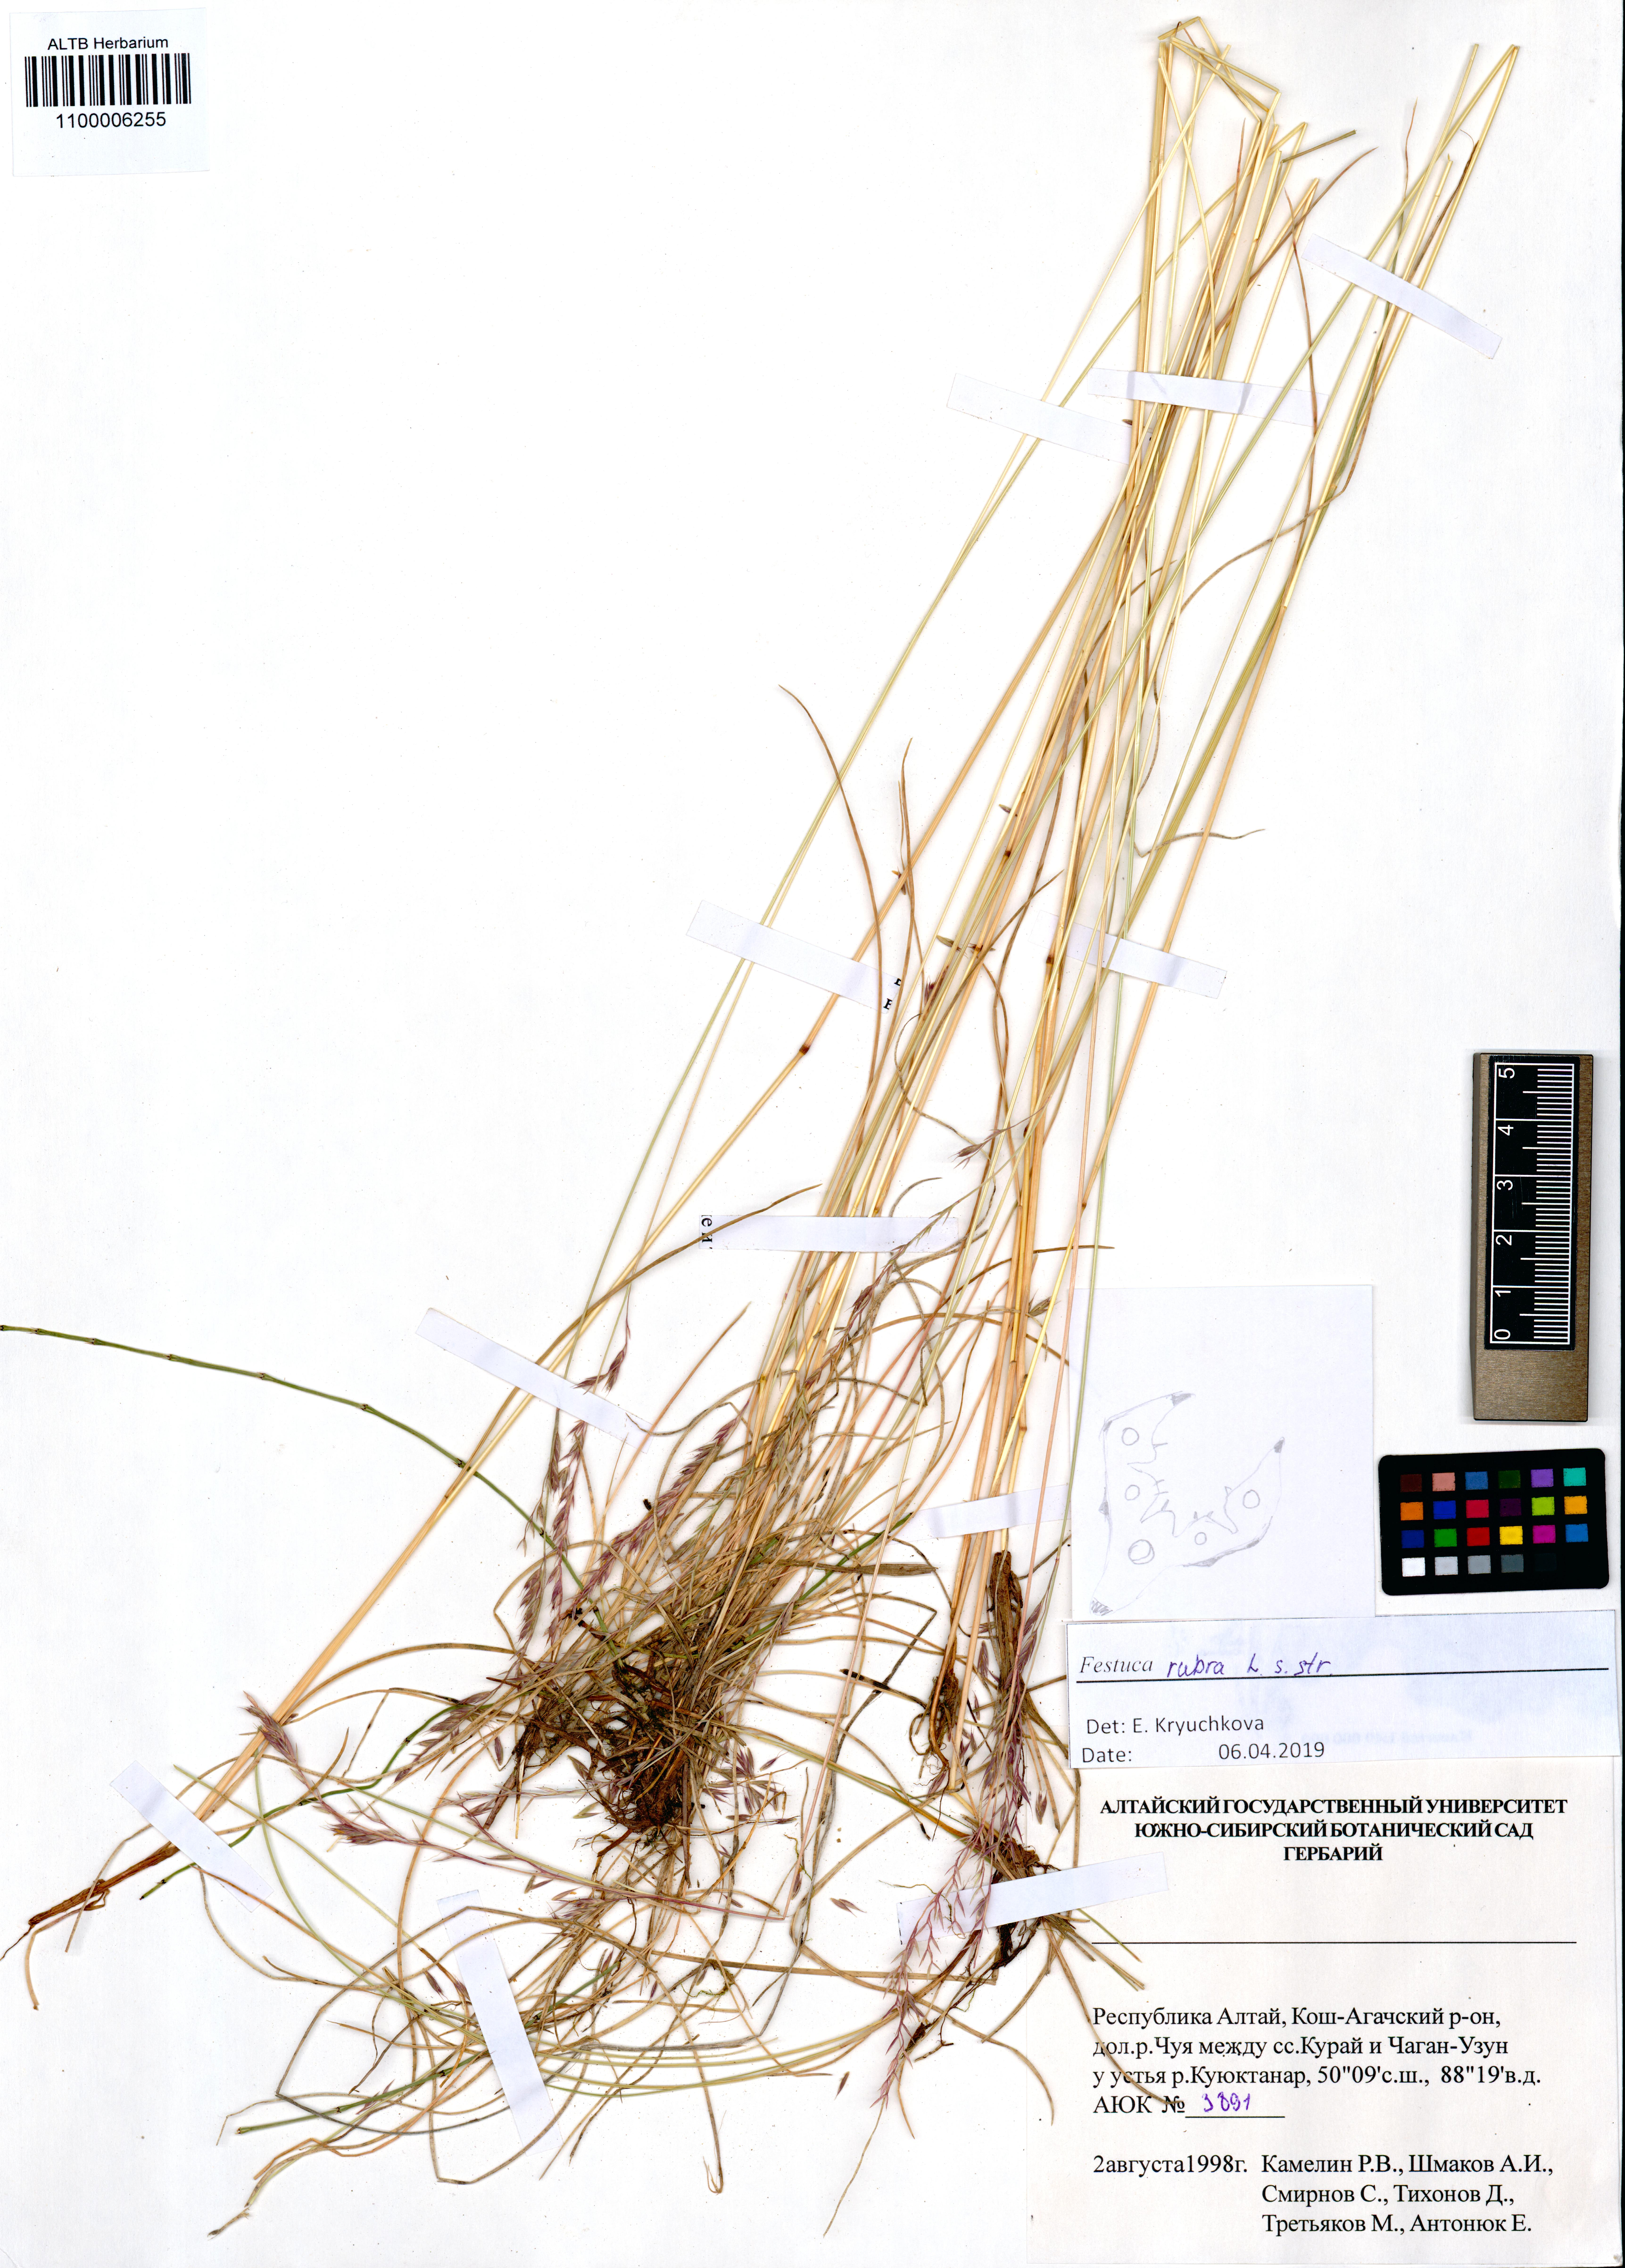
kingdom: Plantae
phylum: Tracheophyta
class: Liliopsida
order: Poales
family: Poaceae
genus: Festuca
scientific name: Festuca rubra
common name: Red fescue
